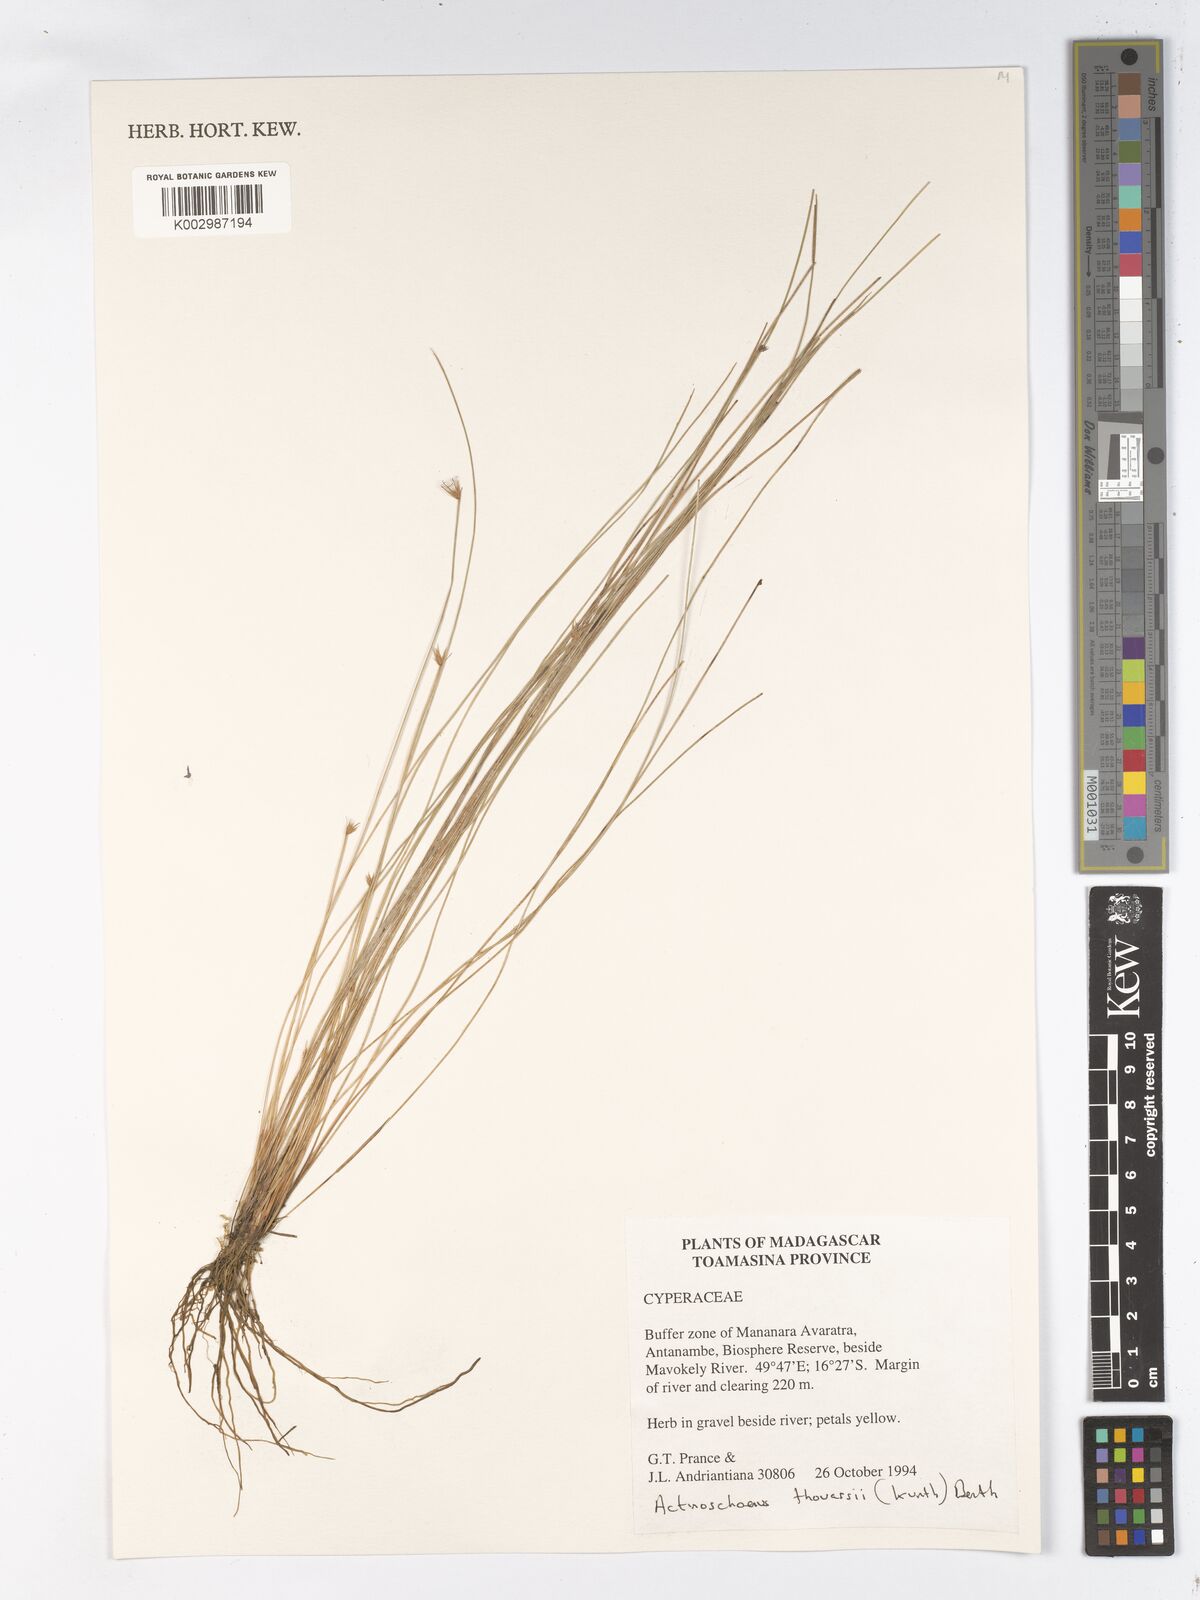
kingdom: Plantae
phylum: Tracheophyta
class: Liliopsida
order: Poales
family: Cyperaceae
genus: Actinoschoenus
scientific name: Actinoschoenus aphyllus
